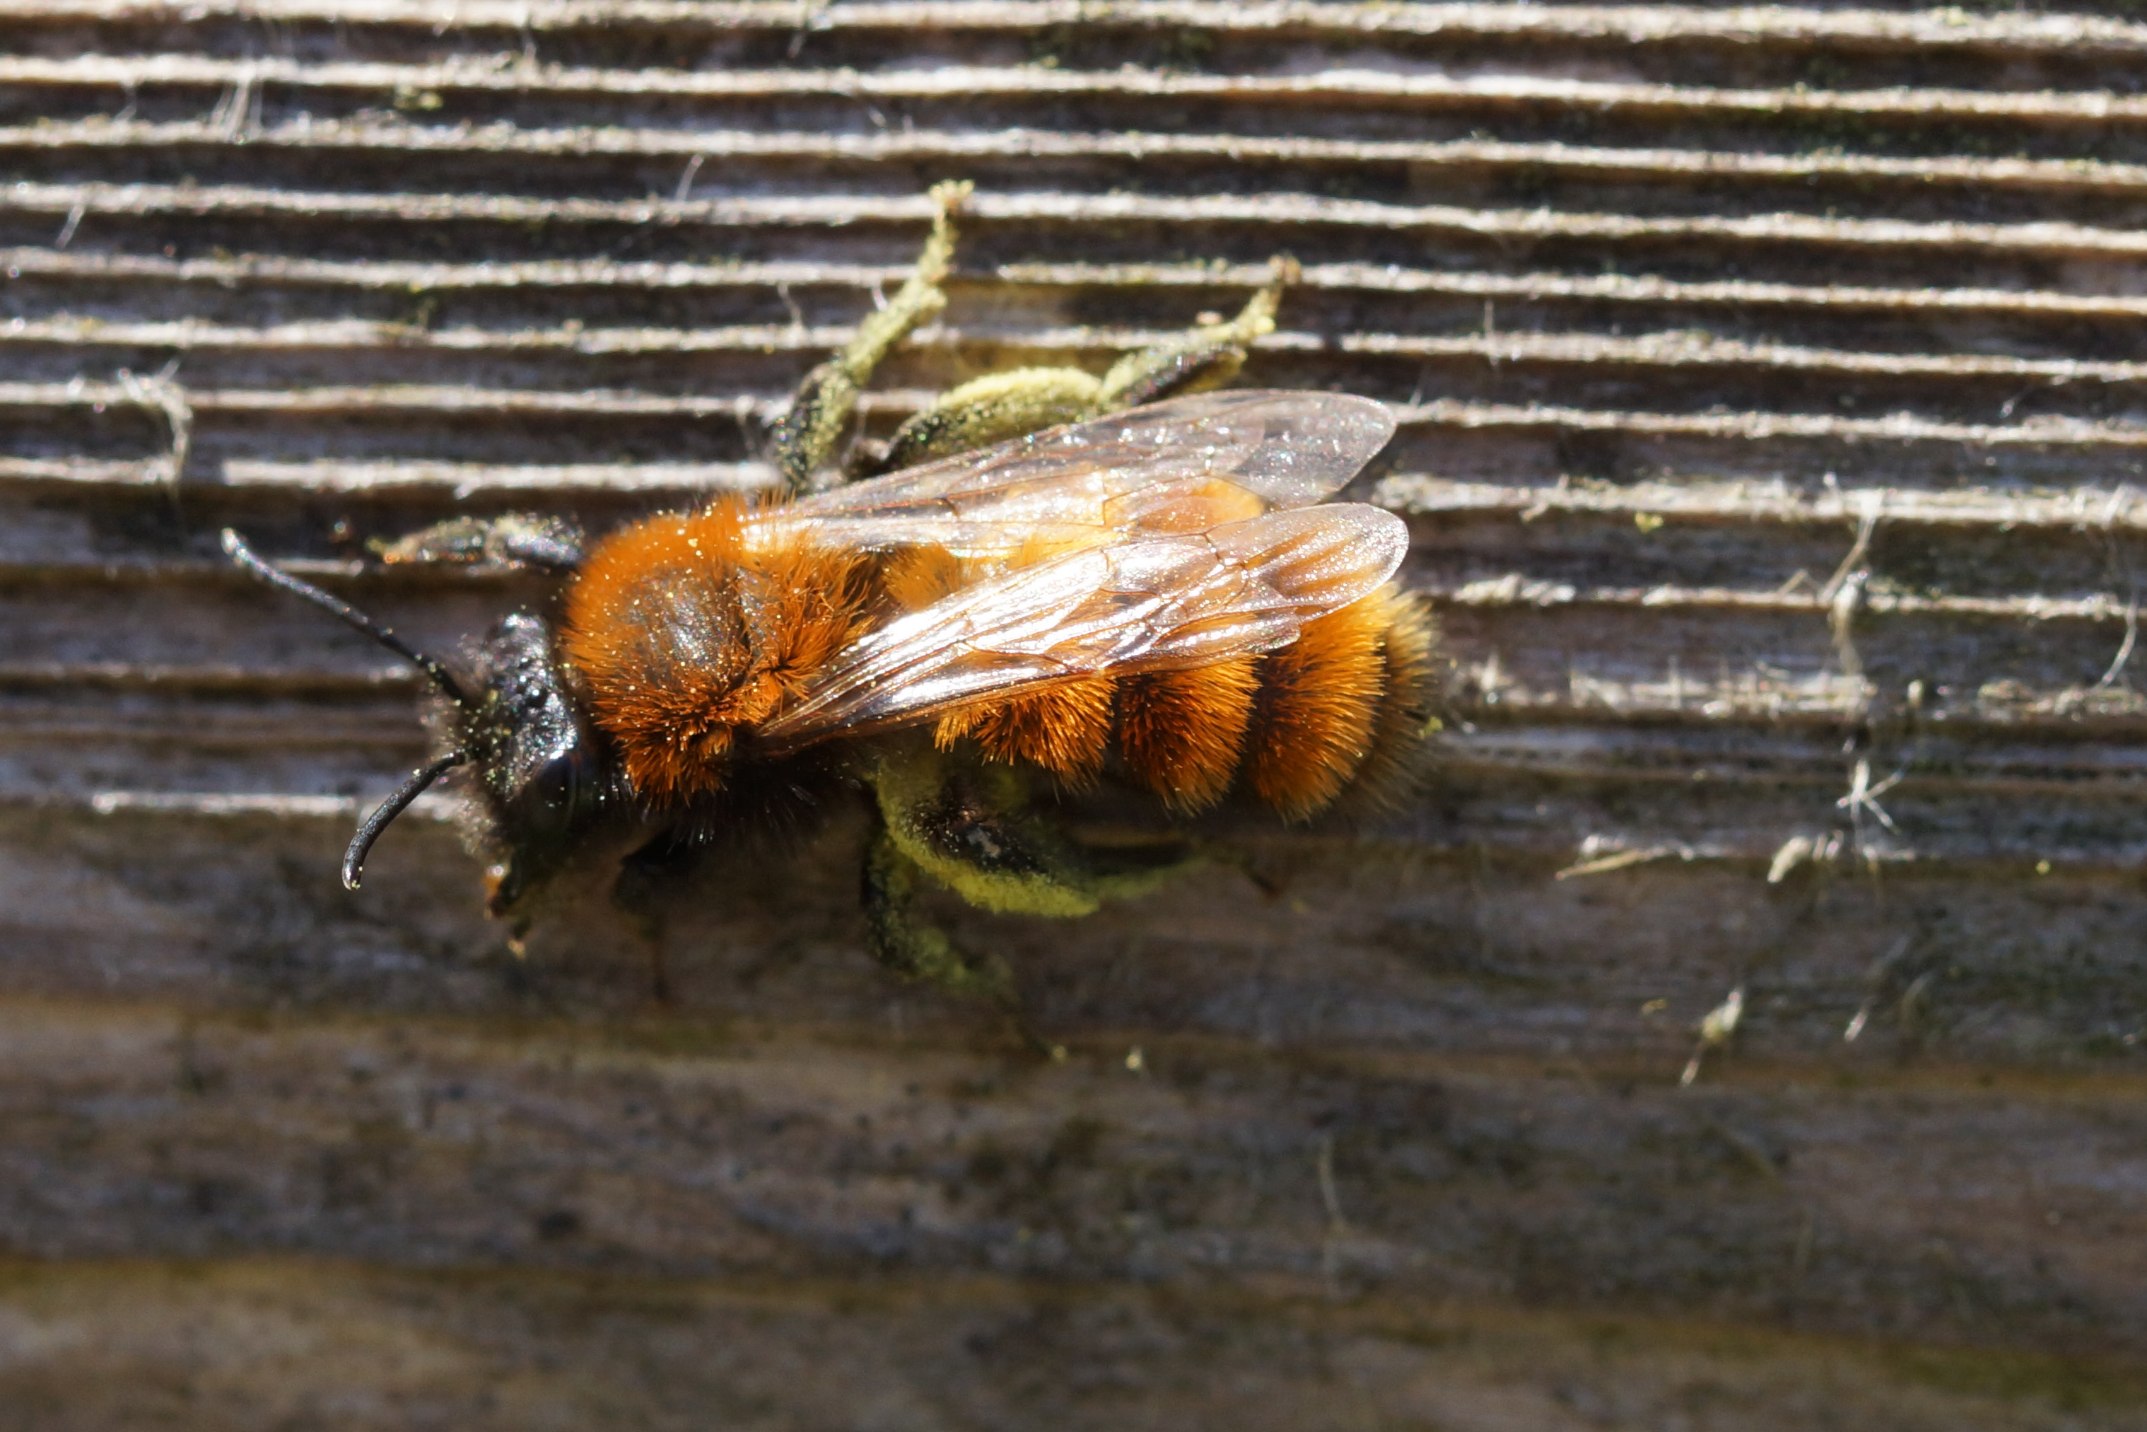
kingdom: Animalia
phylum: Arthropoda
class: Insecta
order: Hymenoptera
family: Andrenidae
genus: Andrena
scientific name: Andrena fulva
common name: Rødpelset jordbi
